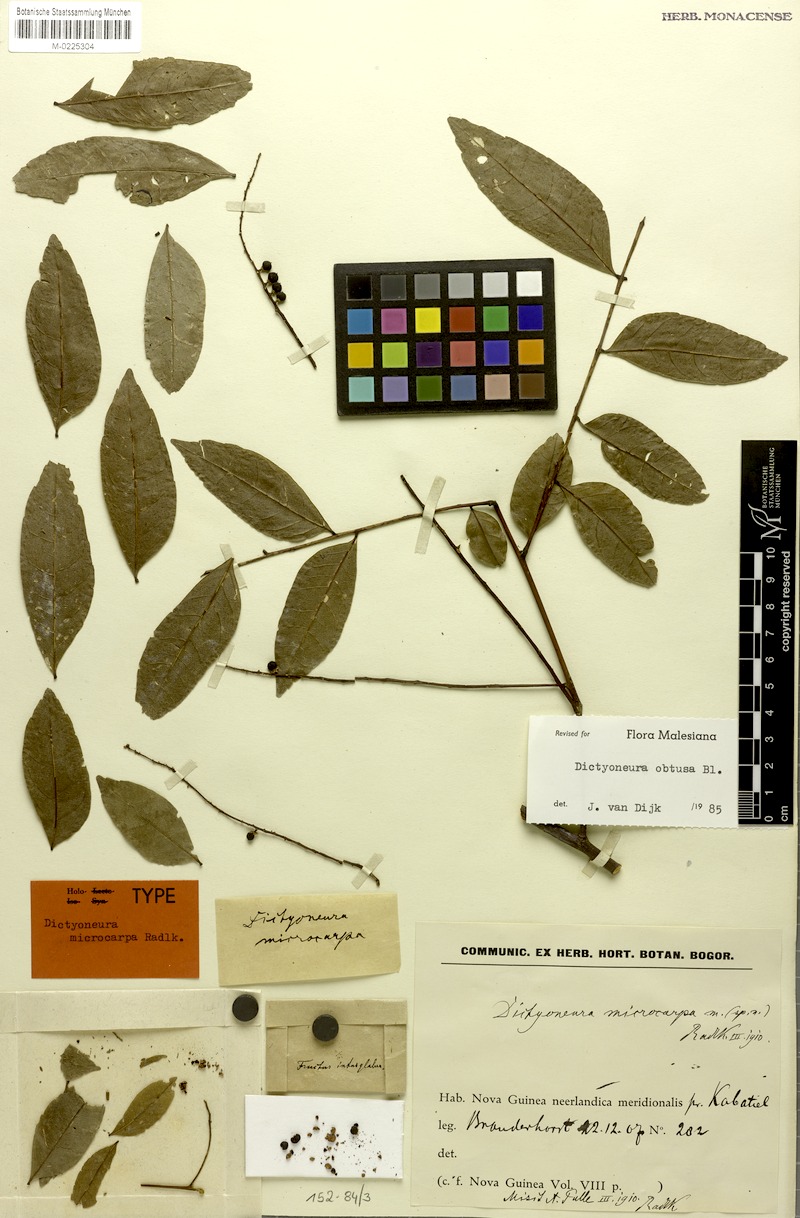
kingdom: Plantae
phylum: Tracheophyta
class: Magnoliopsida
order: Sapindales
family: Sapindaceae
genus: Dictyoneura
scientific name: Dictyoneura obtusa
